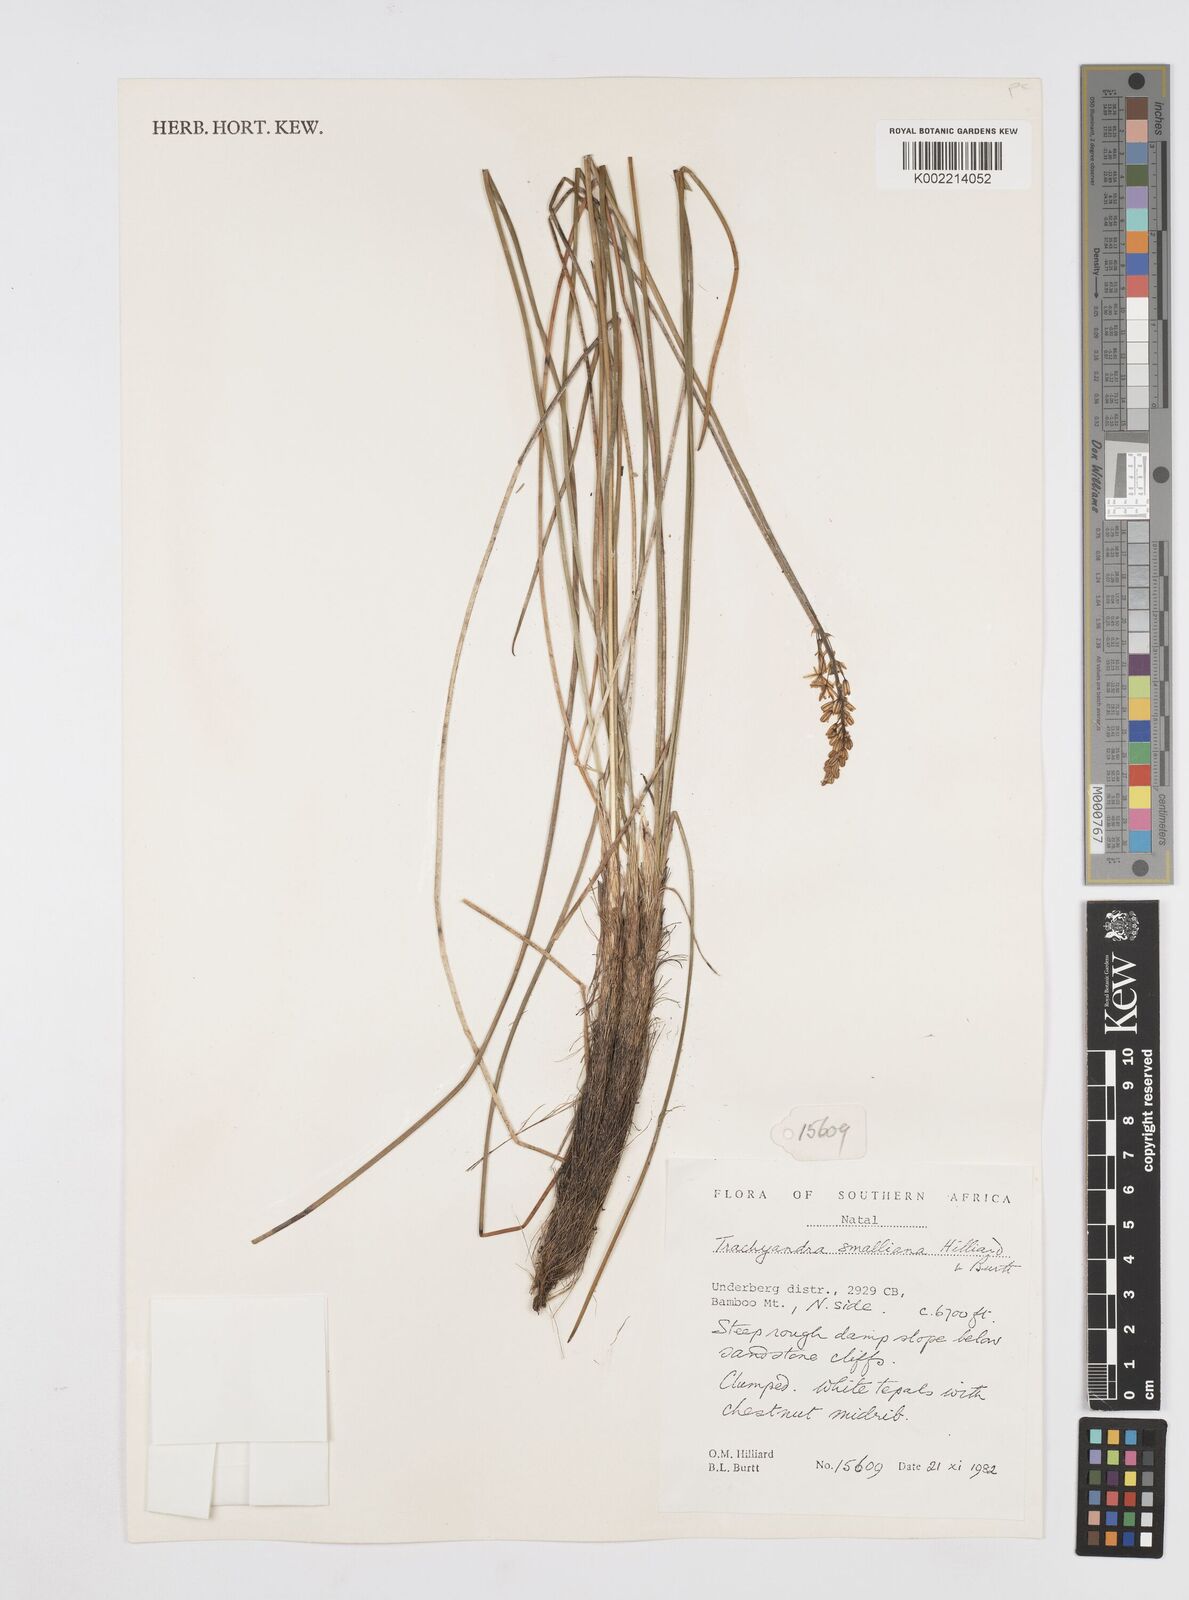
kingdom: Plantae
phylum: Tracheophyta
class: Liliopsida
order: Asparagales
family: Asphodelaceae
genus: Trachyandra
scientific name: Trachyandra smalliana
